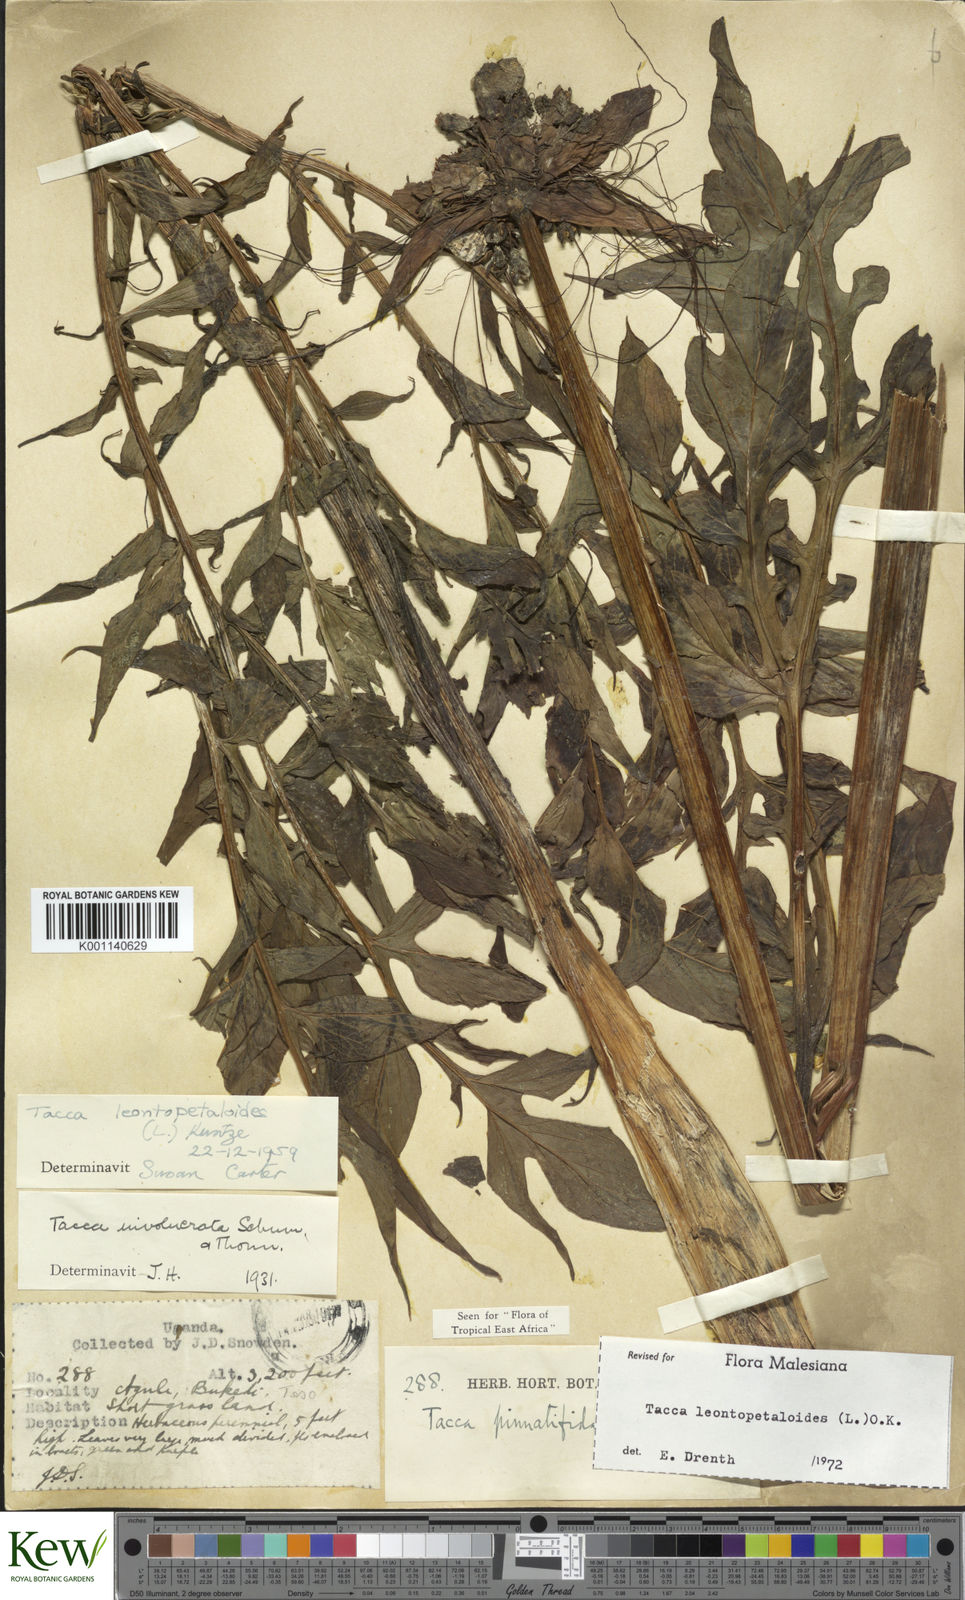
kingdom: Plantae
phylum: Tracheophyta
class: Liliopsida
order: Dioscoreales
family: Dioscoreaceae
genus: Tacca
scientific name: Tacca leontopetaloides
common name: Arrowroot
